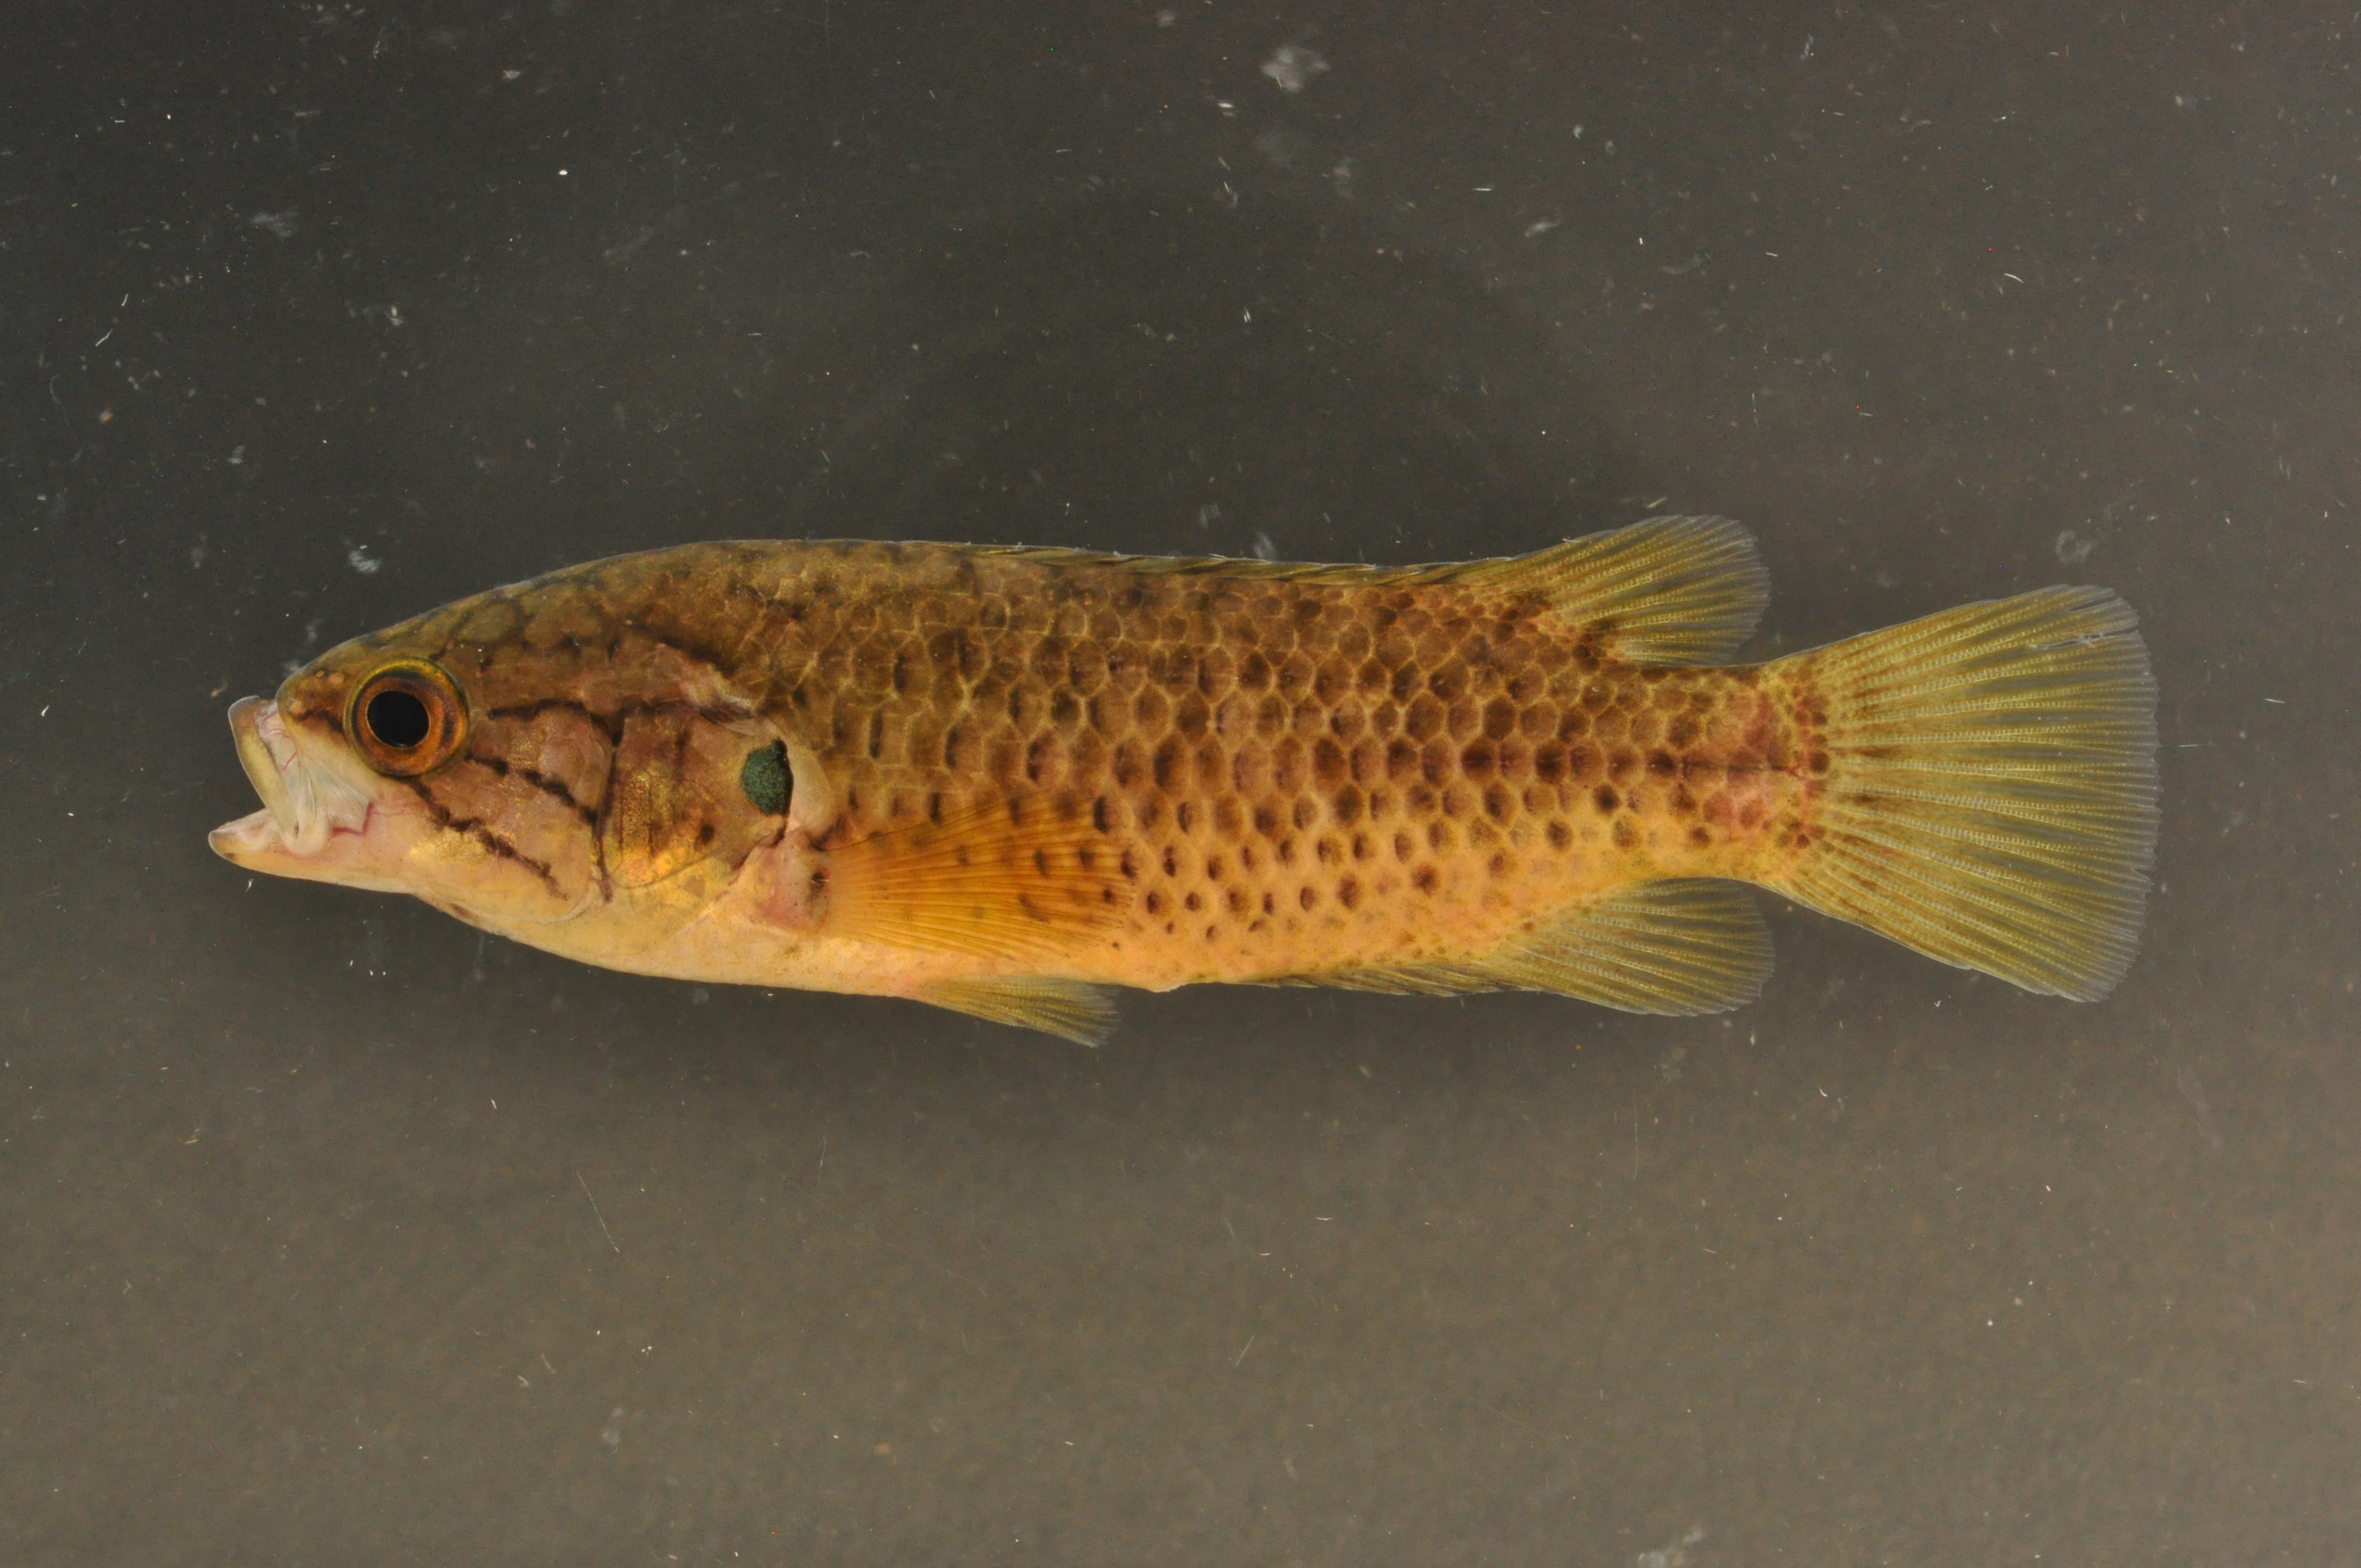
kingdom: Animalia
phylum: Chordata
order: Perciformes
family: Anabantidae
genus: Sandelia
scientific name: Sandelia capensis
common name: Cape kurper
